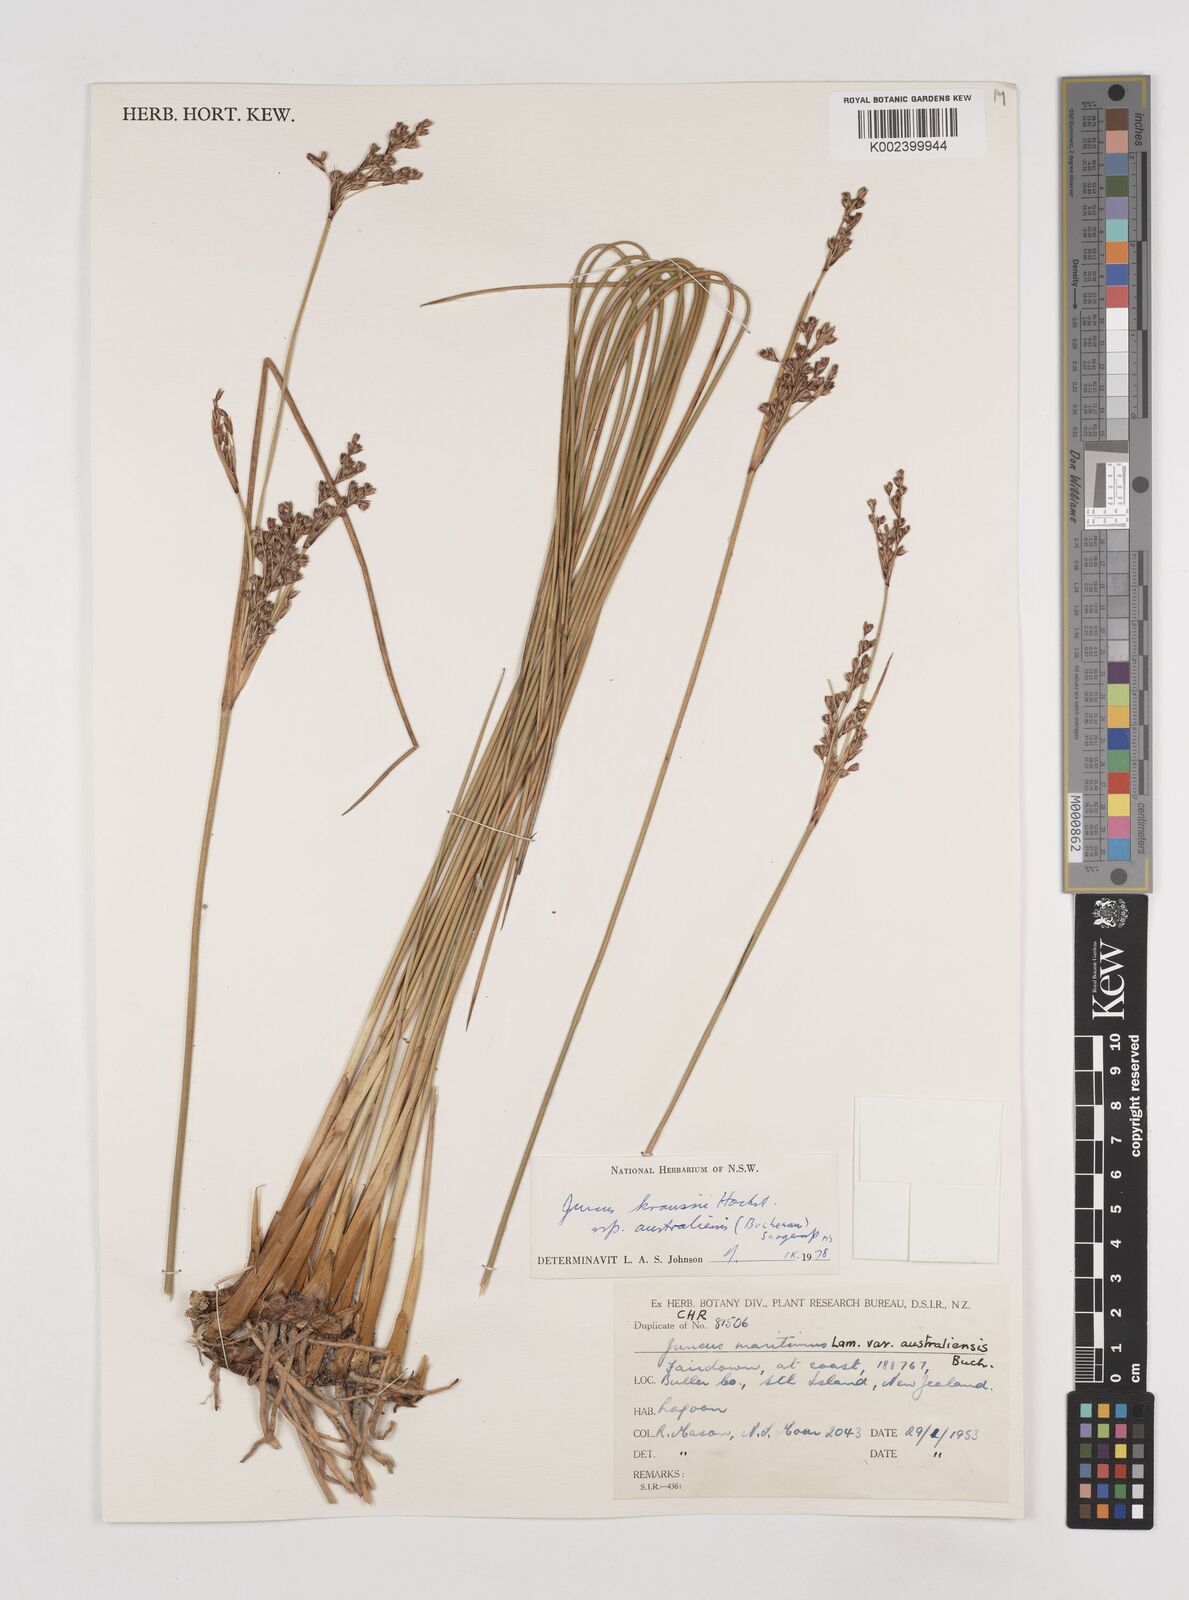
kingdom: Plantae
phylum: Tracheophyta
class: Liliopsida
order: Poales
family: Juncaceae
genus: Juncus
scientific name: Juncus kraussii
